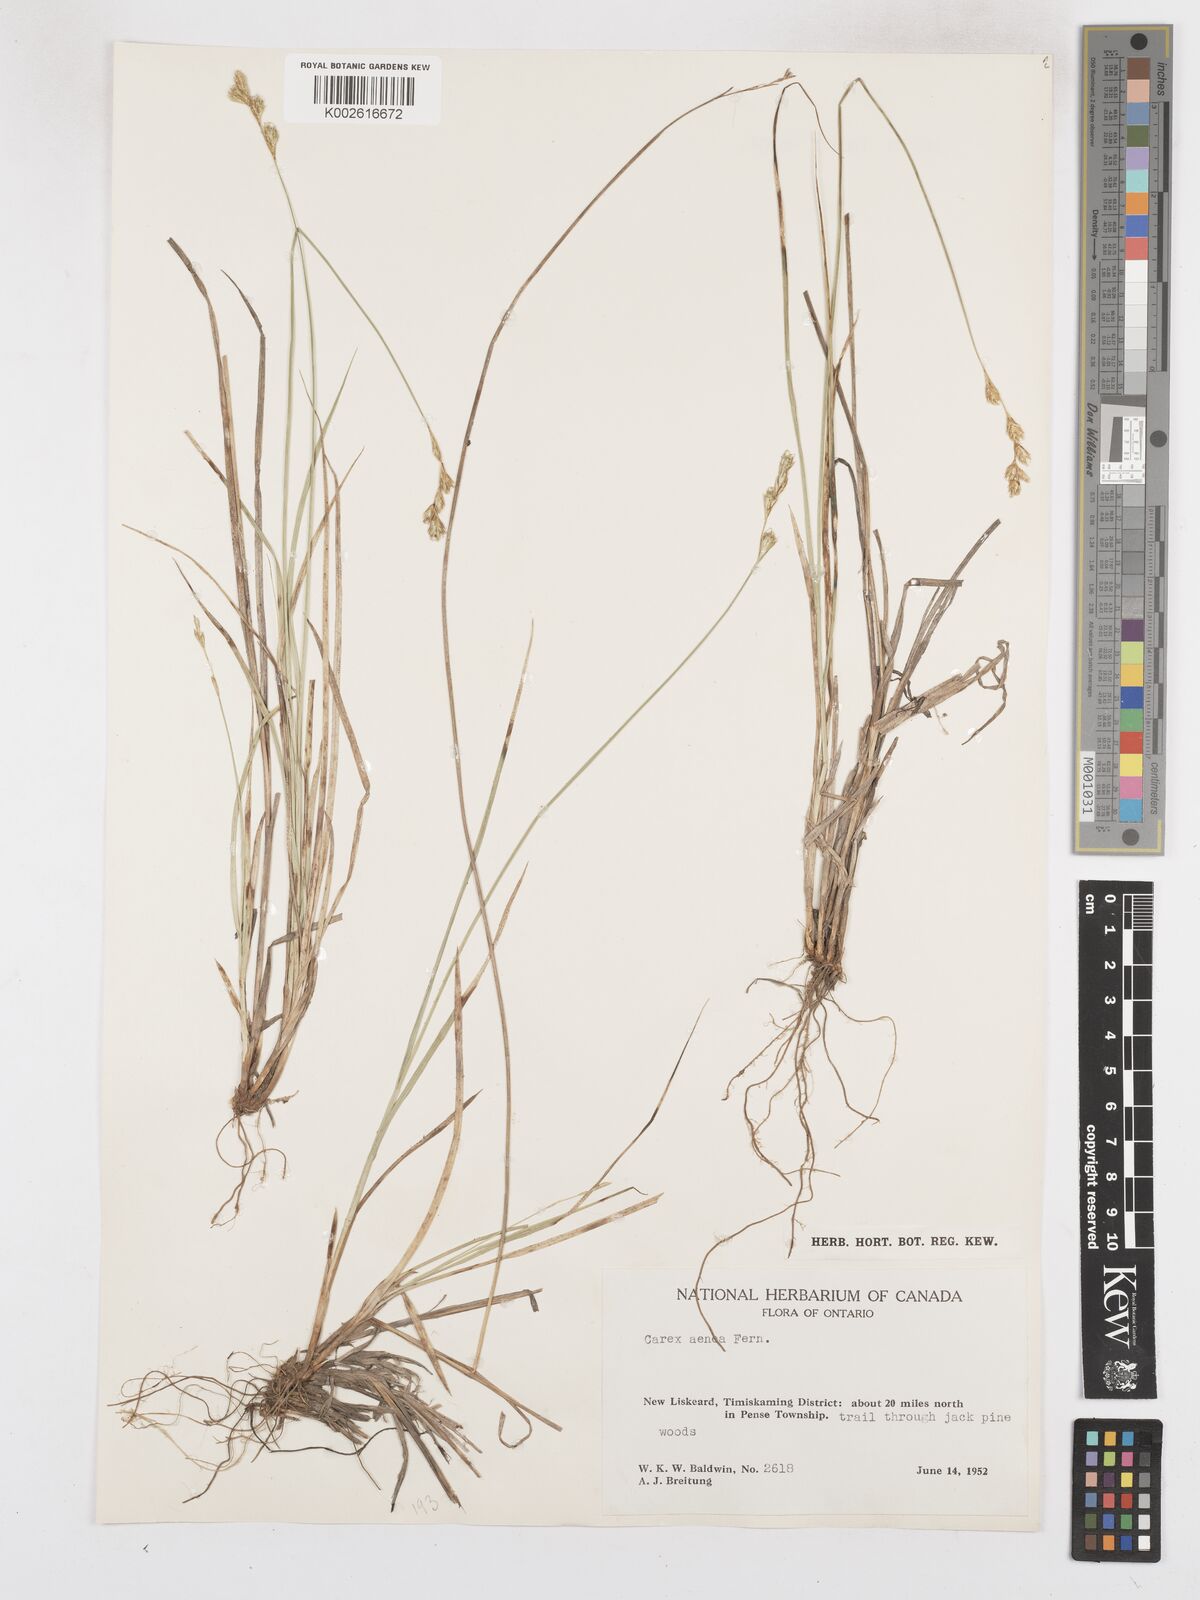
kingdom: Plantae
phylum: Tracheophyta
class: Liliopsida
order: Poales
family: Cyperaceae
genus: Carex
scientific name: Carex foenea
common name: Bronze sedge
